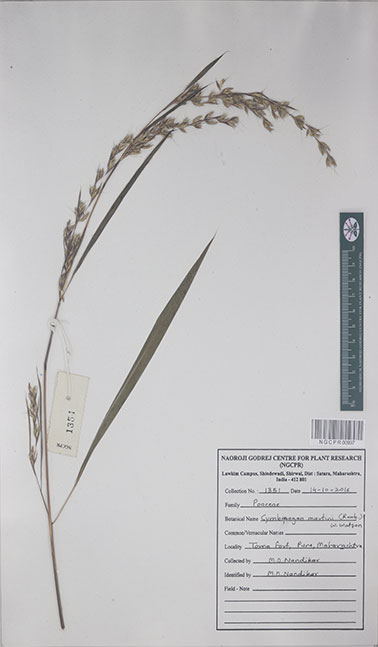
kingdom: Plantae
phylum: Tracheophyta
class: Liliopsida
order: Poales
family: Poaceae
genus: Cymbopogon
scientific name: Cymbopogon martini
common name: Ginger grass
